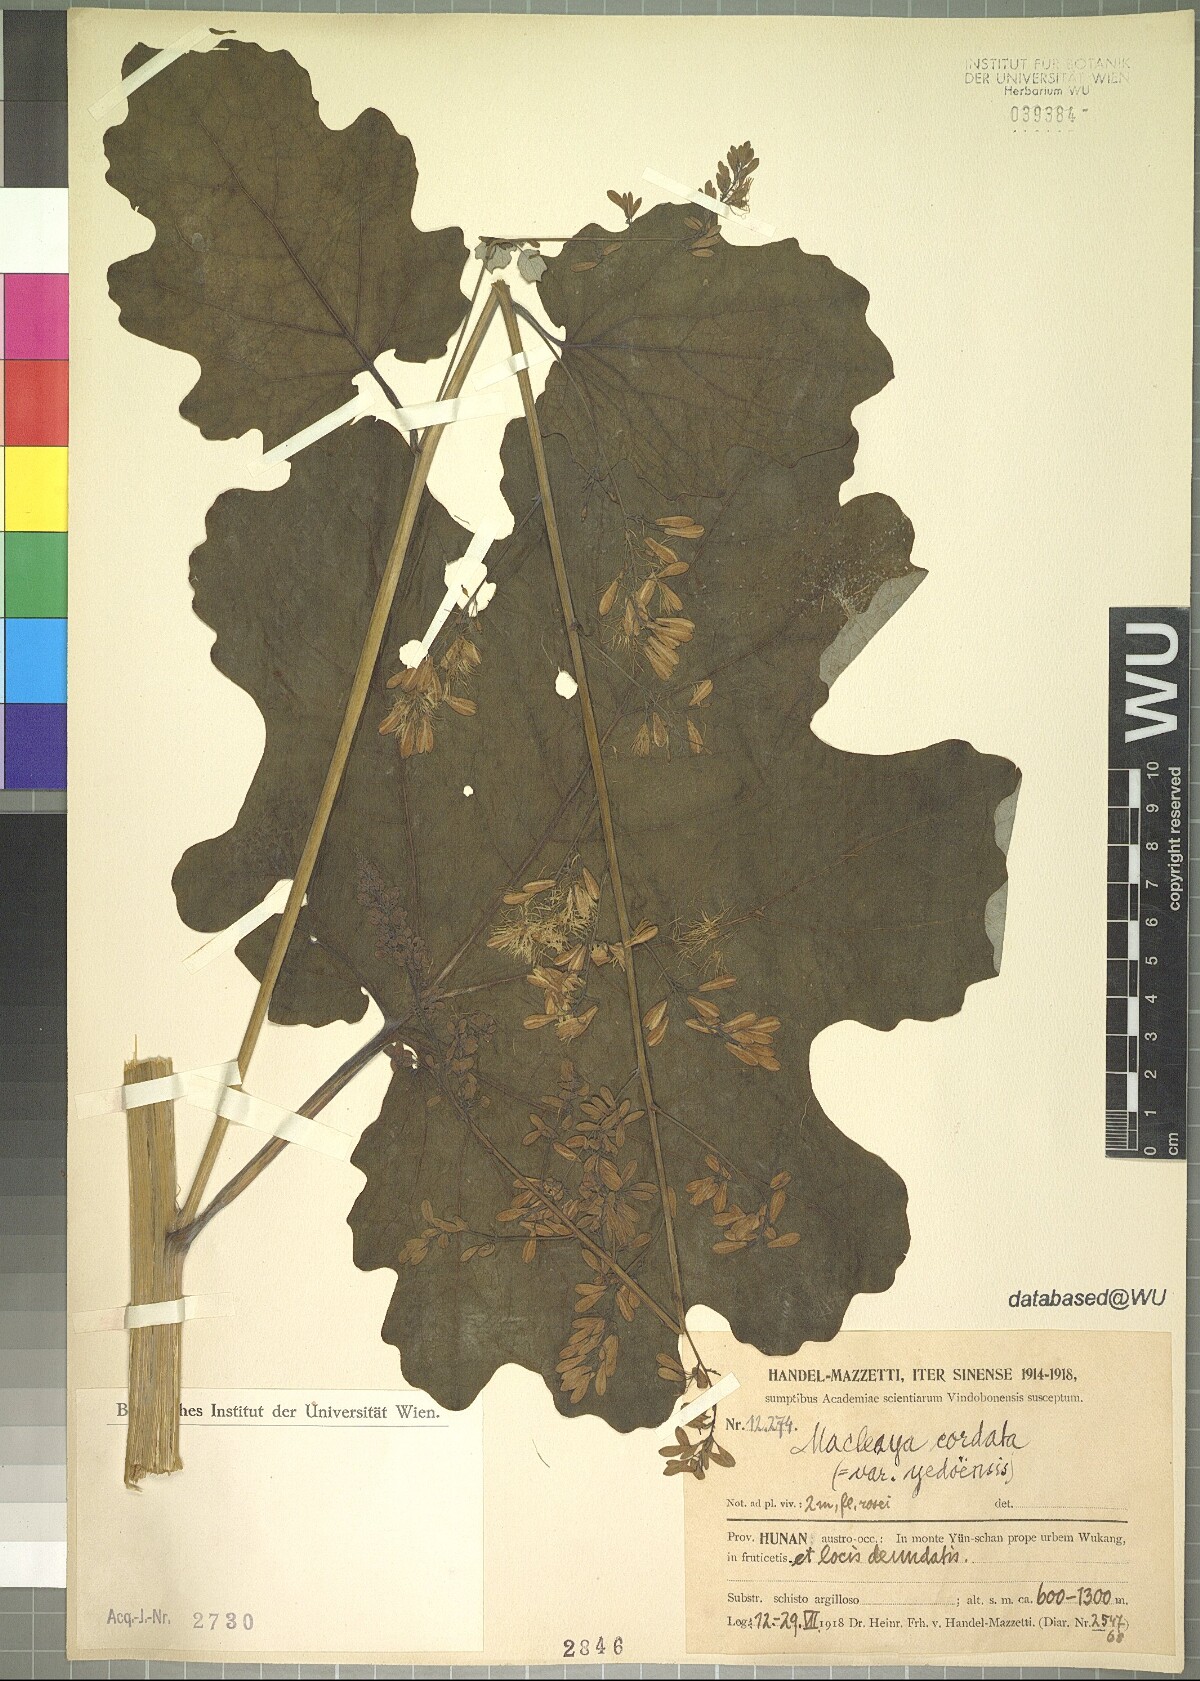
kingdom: Plantae
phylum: Tracheophyta
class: Magnoliopsida
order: Ranunculales
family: Papaveraceae
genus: Macleaya
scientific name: Macleaya cordata
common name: Plume poppy
